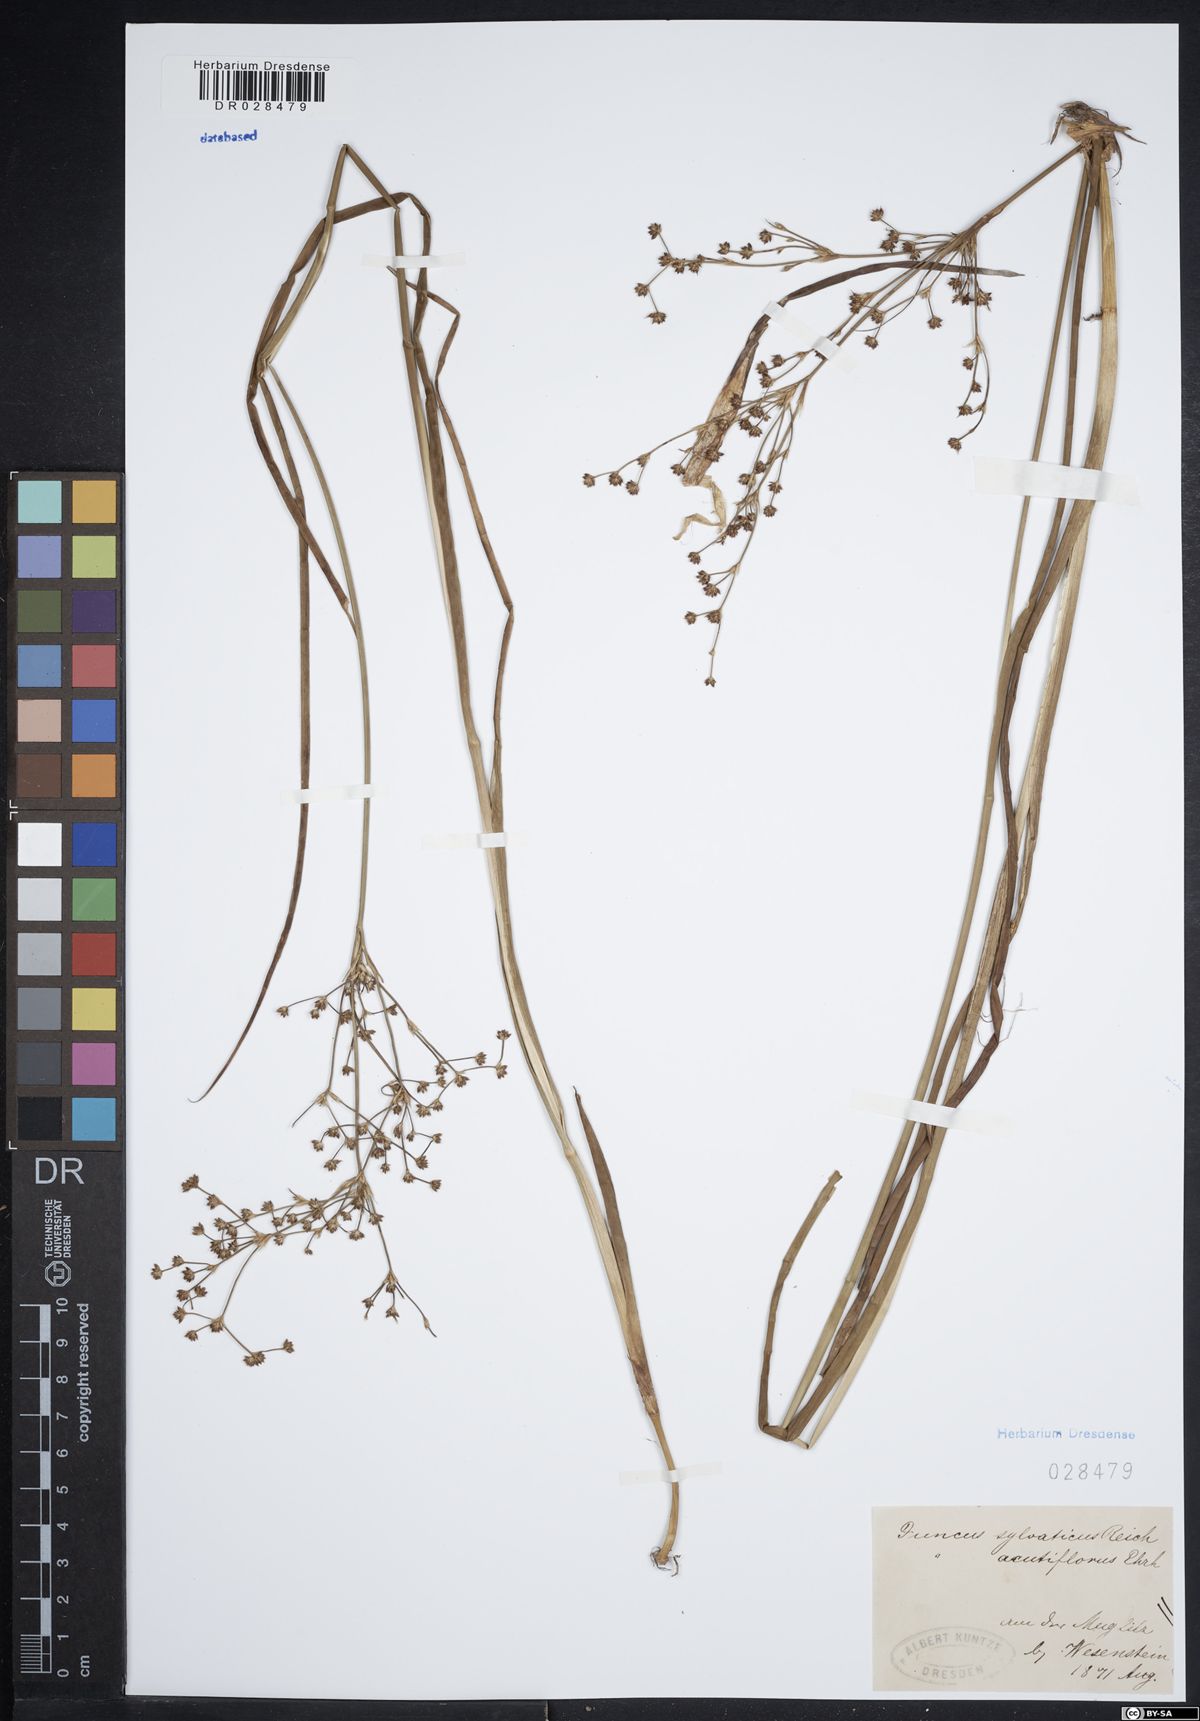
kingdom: Plantae
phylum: Tracheophyta
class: Liliopsida
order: Poales
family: Juncaceae
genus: Juncus
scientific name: Juncus acutiflorus
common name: Sharp-flowered rush
